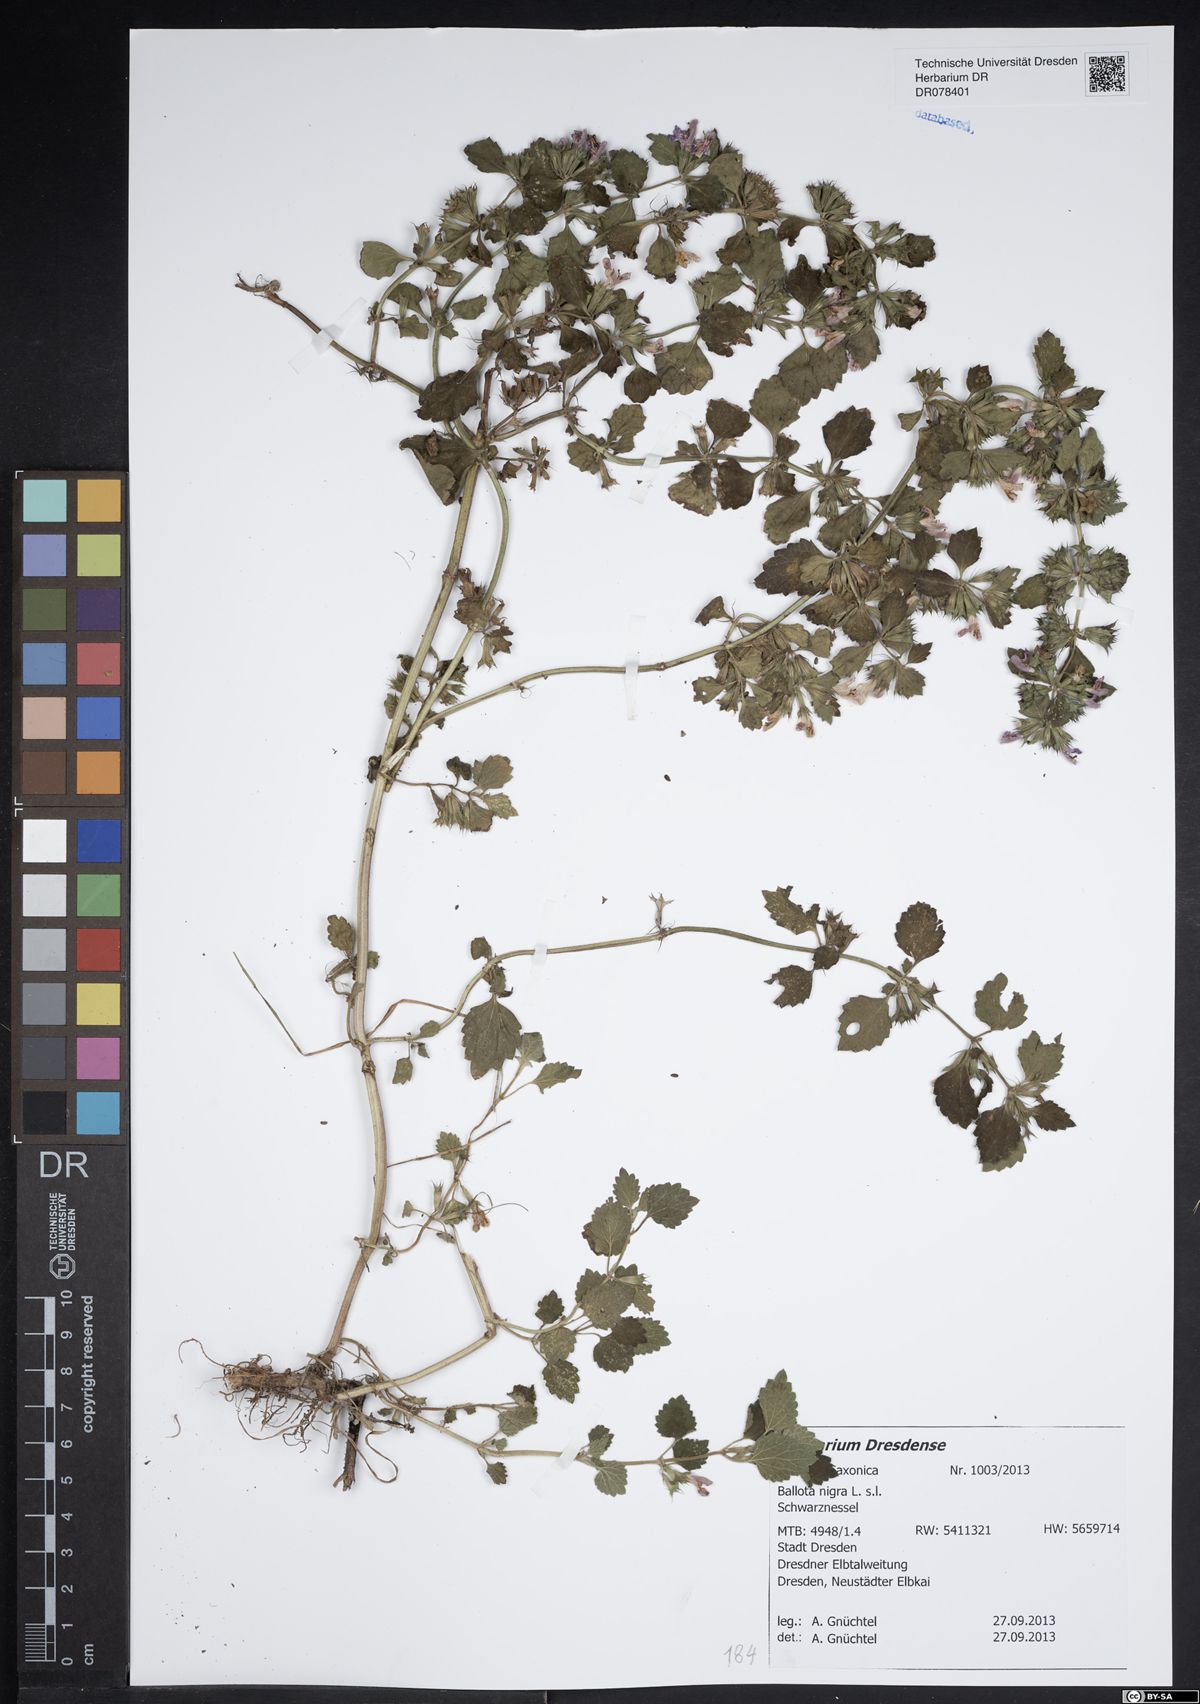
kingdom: Plantae
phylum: Tracheophyta
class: Magnoliopsida
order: Lamiales
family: Lamiaceae
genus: Ballota
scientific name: Ballota nigra
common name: Black horehound
